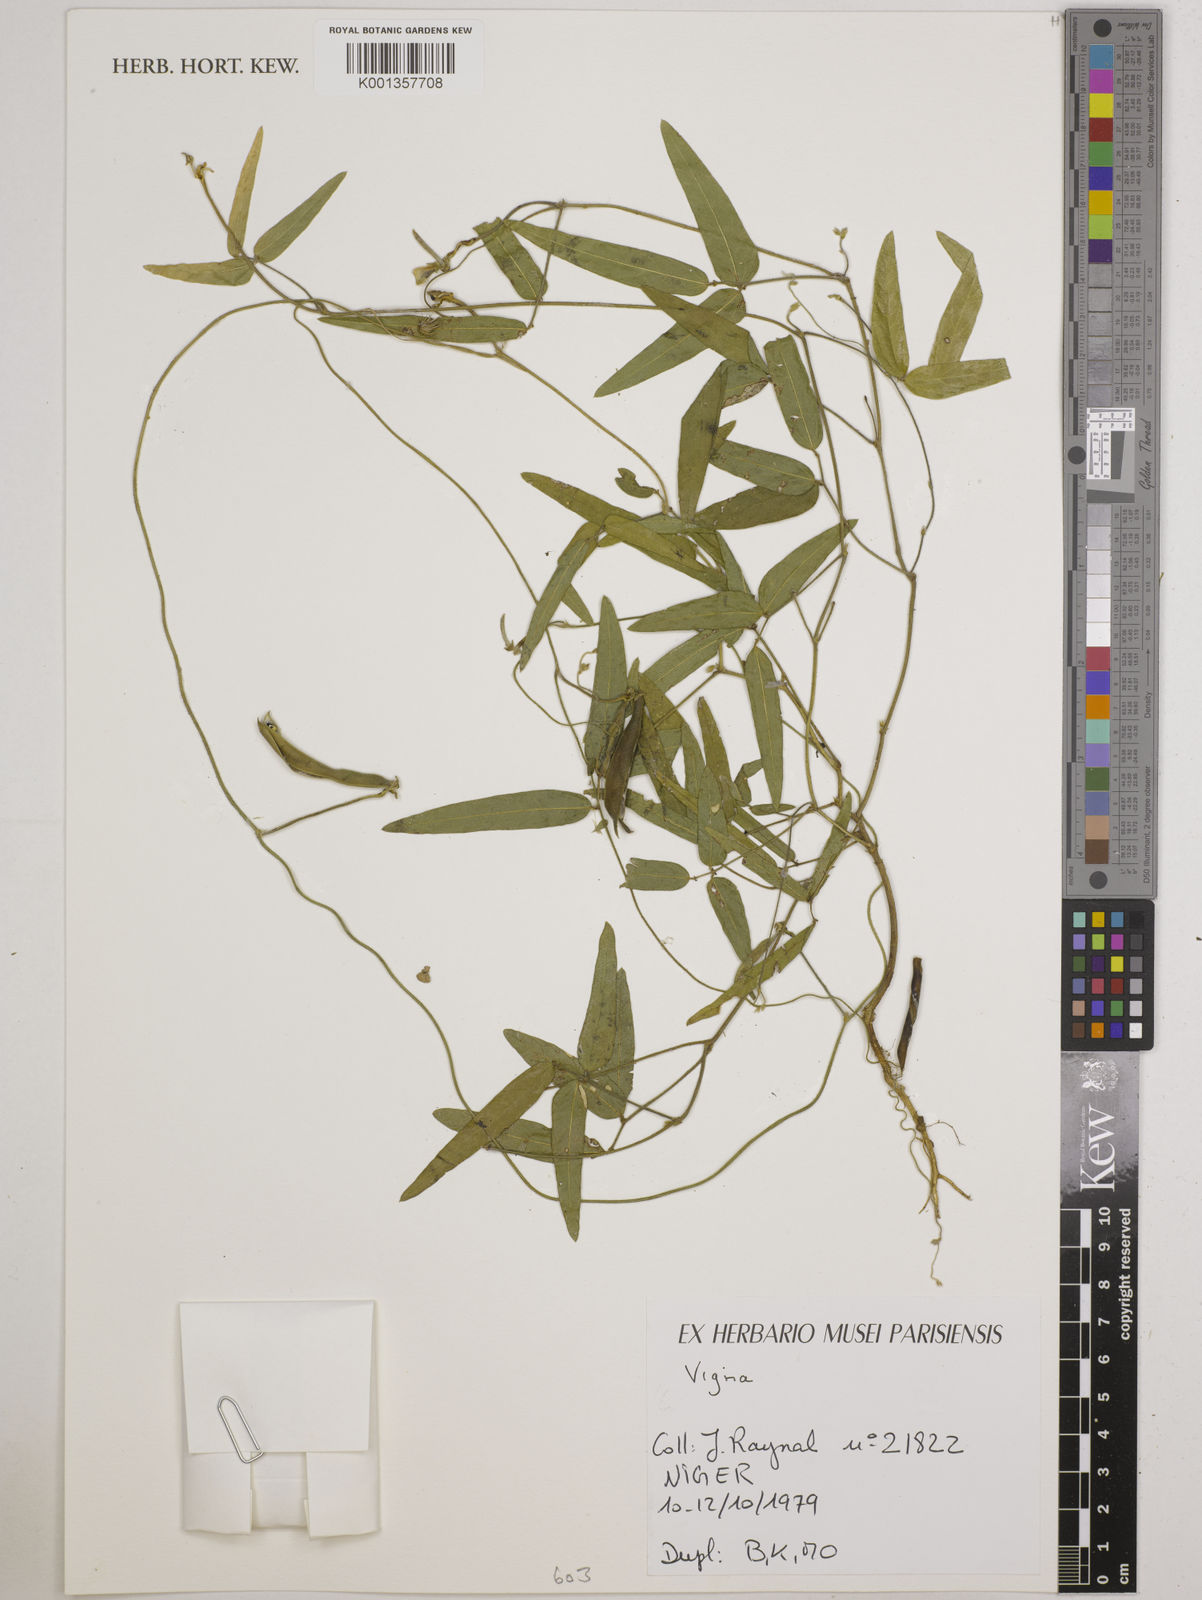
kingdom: Plantae
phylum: Tracheophyta
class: Magnoliopsida
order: Fabales
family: Fabaceae
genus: Vigna
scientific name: Vigna
